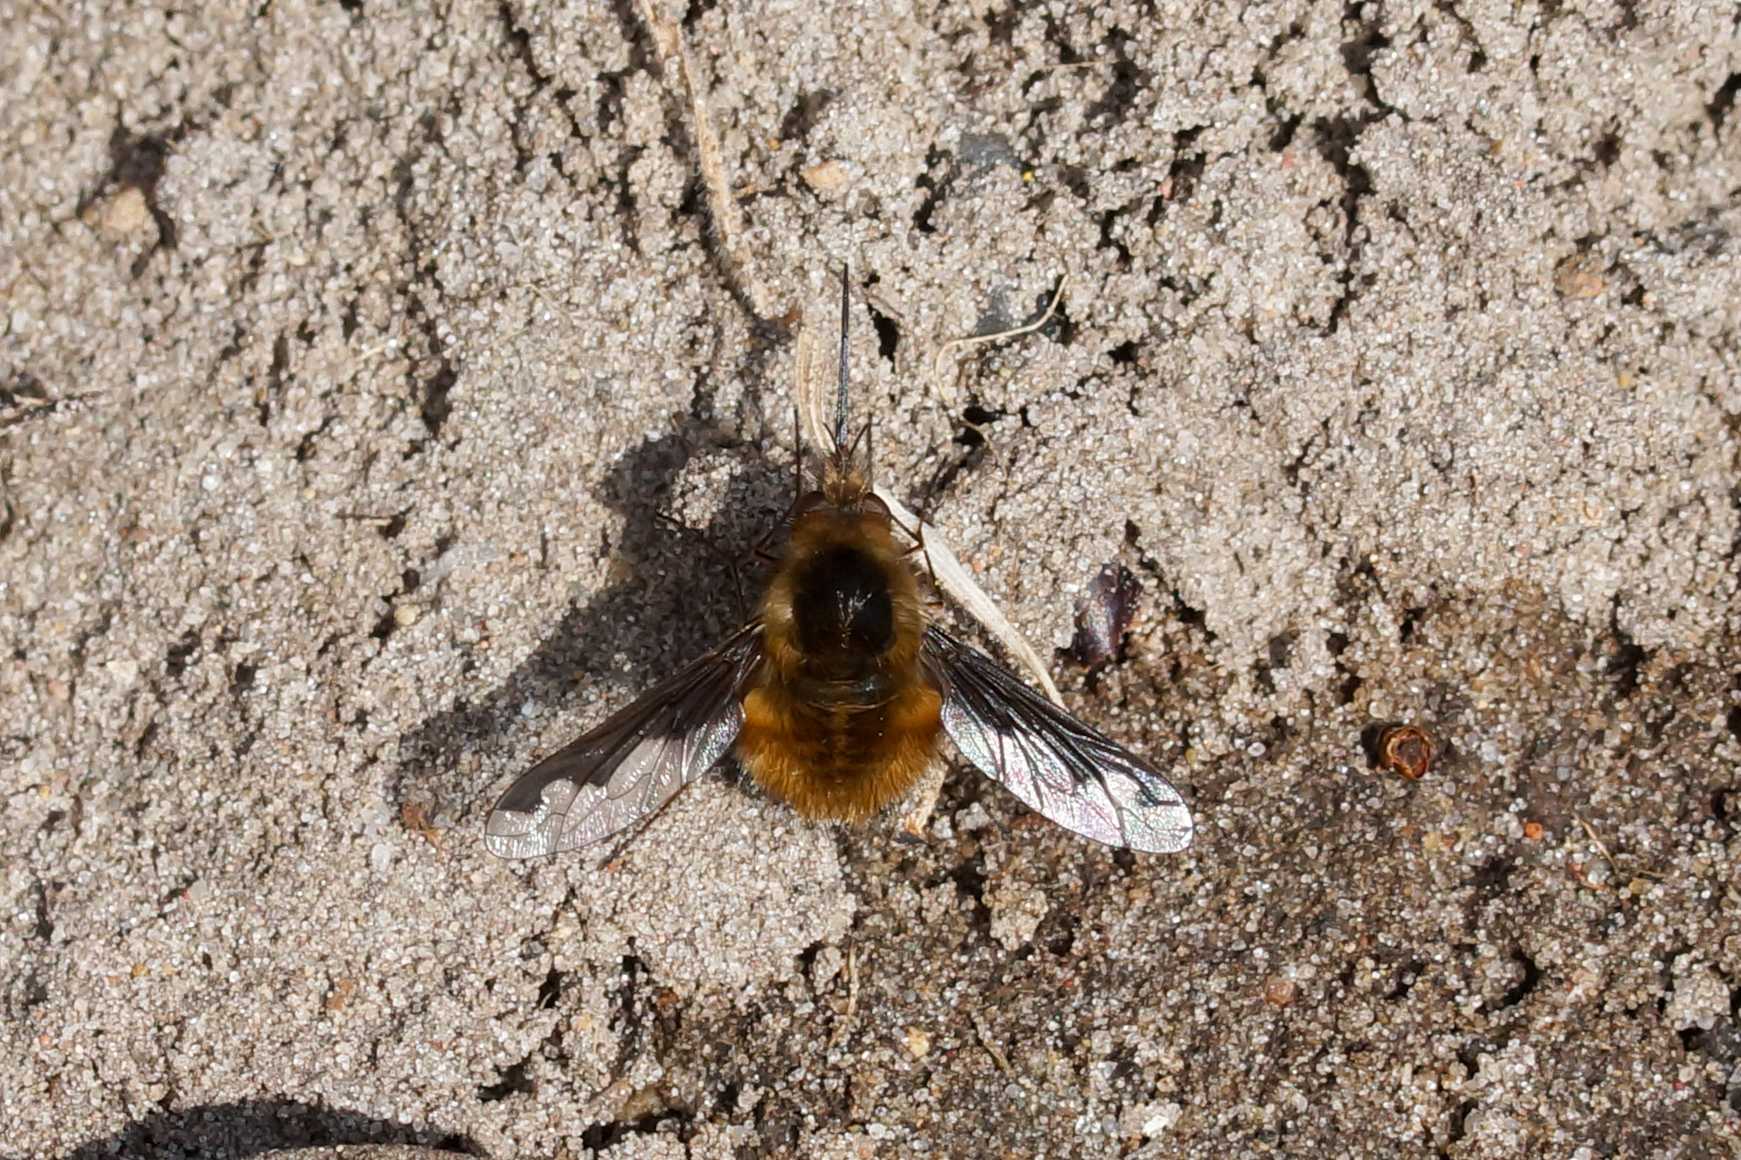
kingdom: Animalia
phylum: Arthropoda
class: Insecta
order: Diptera
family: Bombyliidae
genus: Bombylius
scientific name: Bombylius major
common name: Stor humleflue
